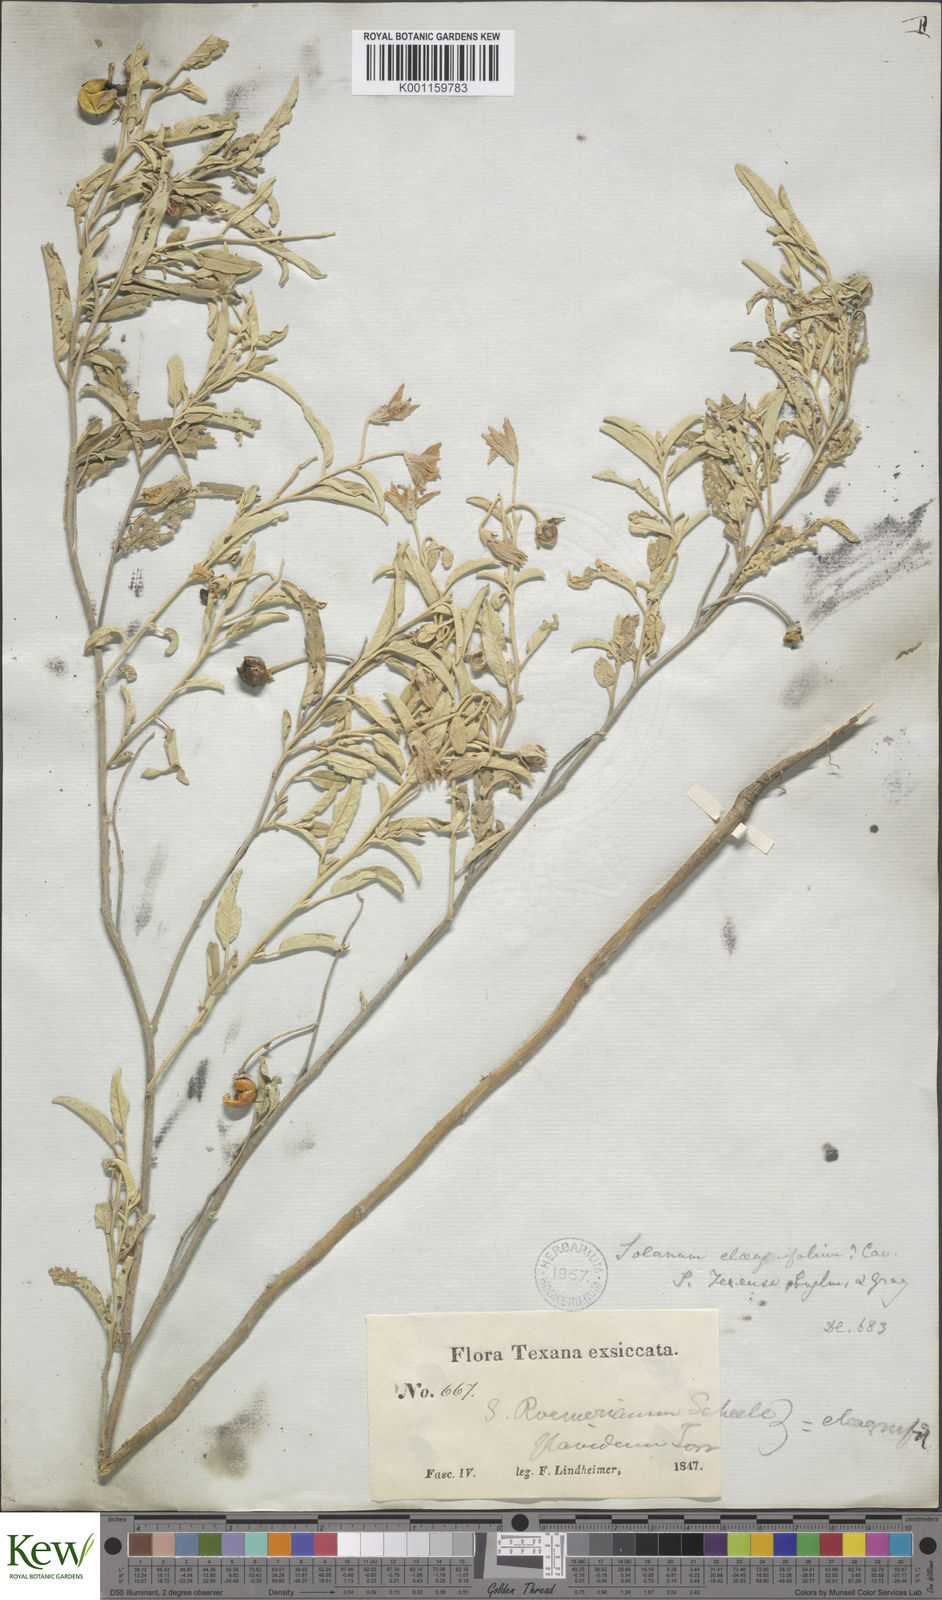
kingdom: Plantae
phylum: Tracheophyta
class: Magnoliopsida
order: Solanales
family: Solanaceae
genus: Solanum
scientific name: Solanum
